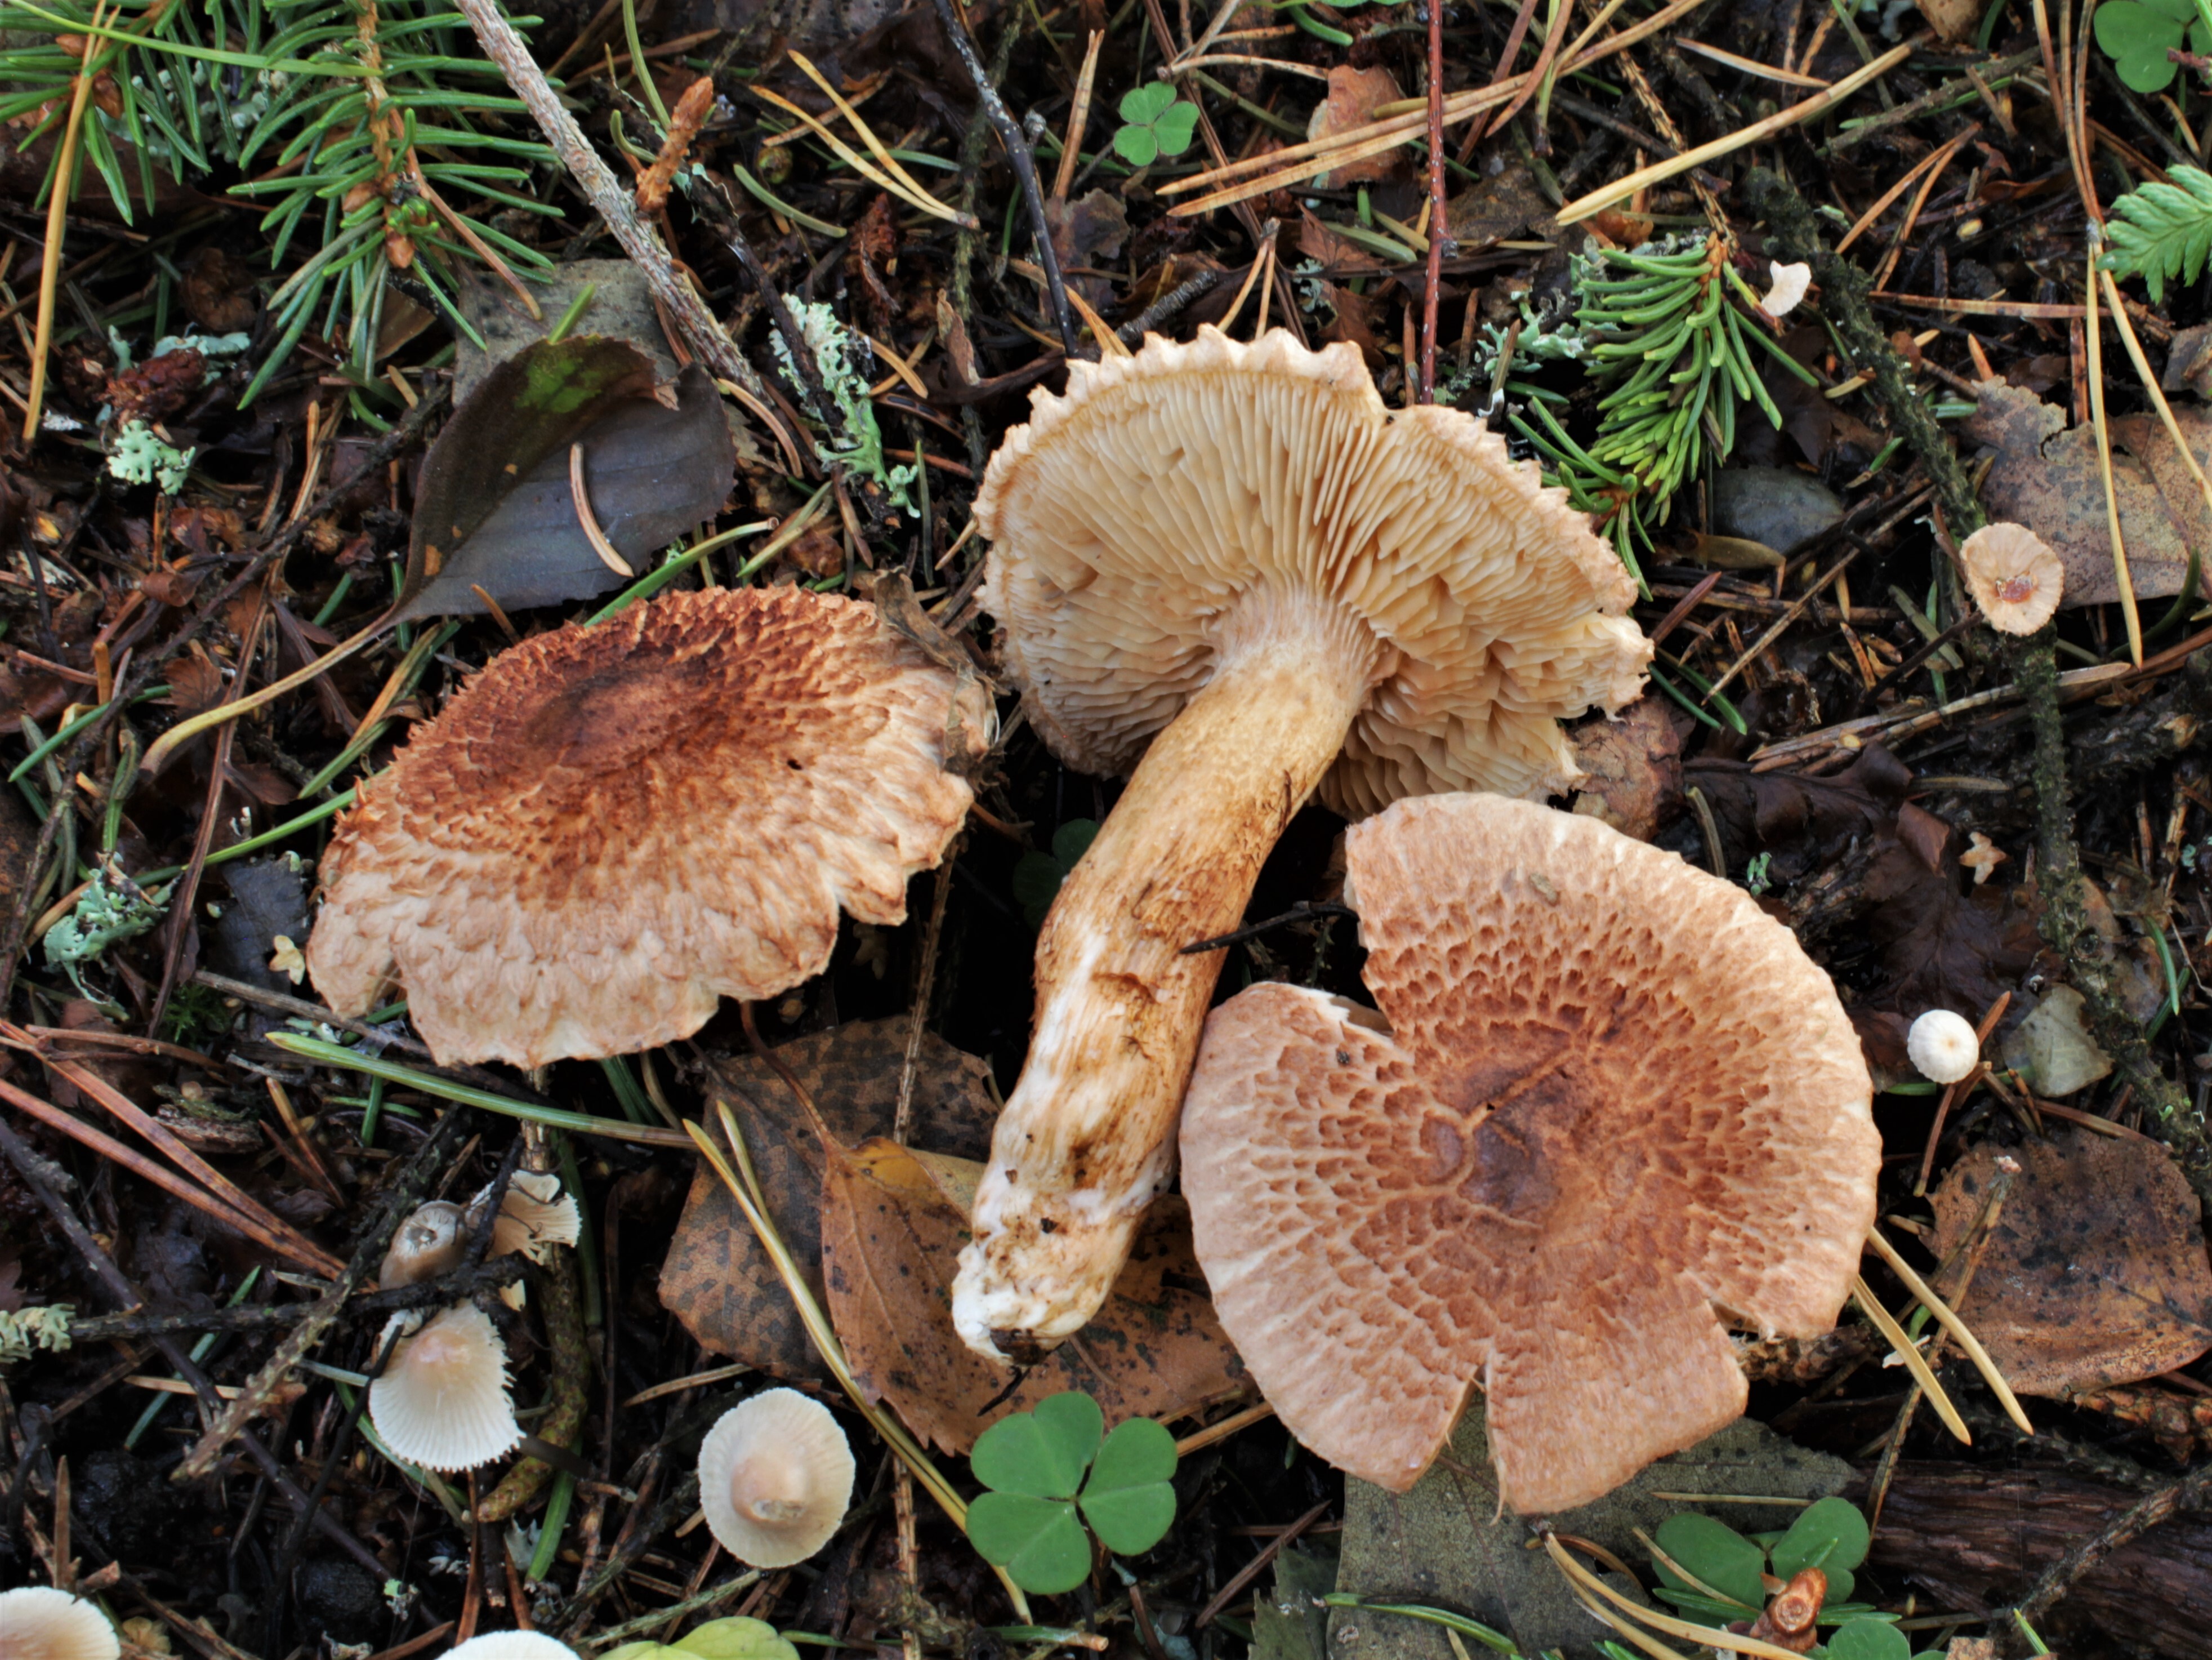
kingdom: Fungi
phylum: Basidiomycota
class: Agaricomycetes
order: Agaricales
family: Tricholomataceae
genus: Tricholoma
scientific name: Tricholoma vaccinum
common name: Scaly knight
